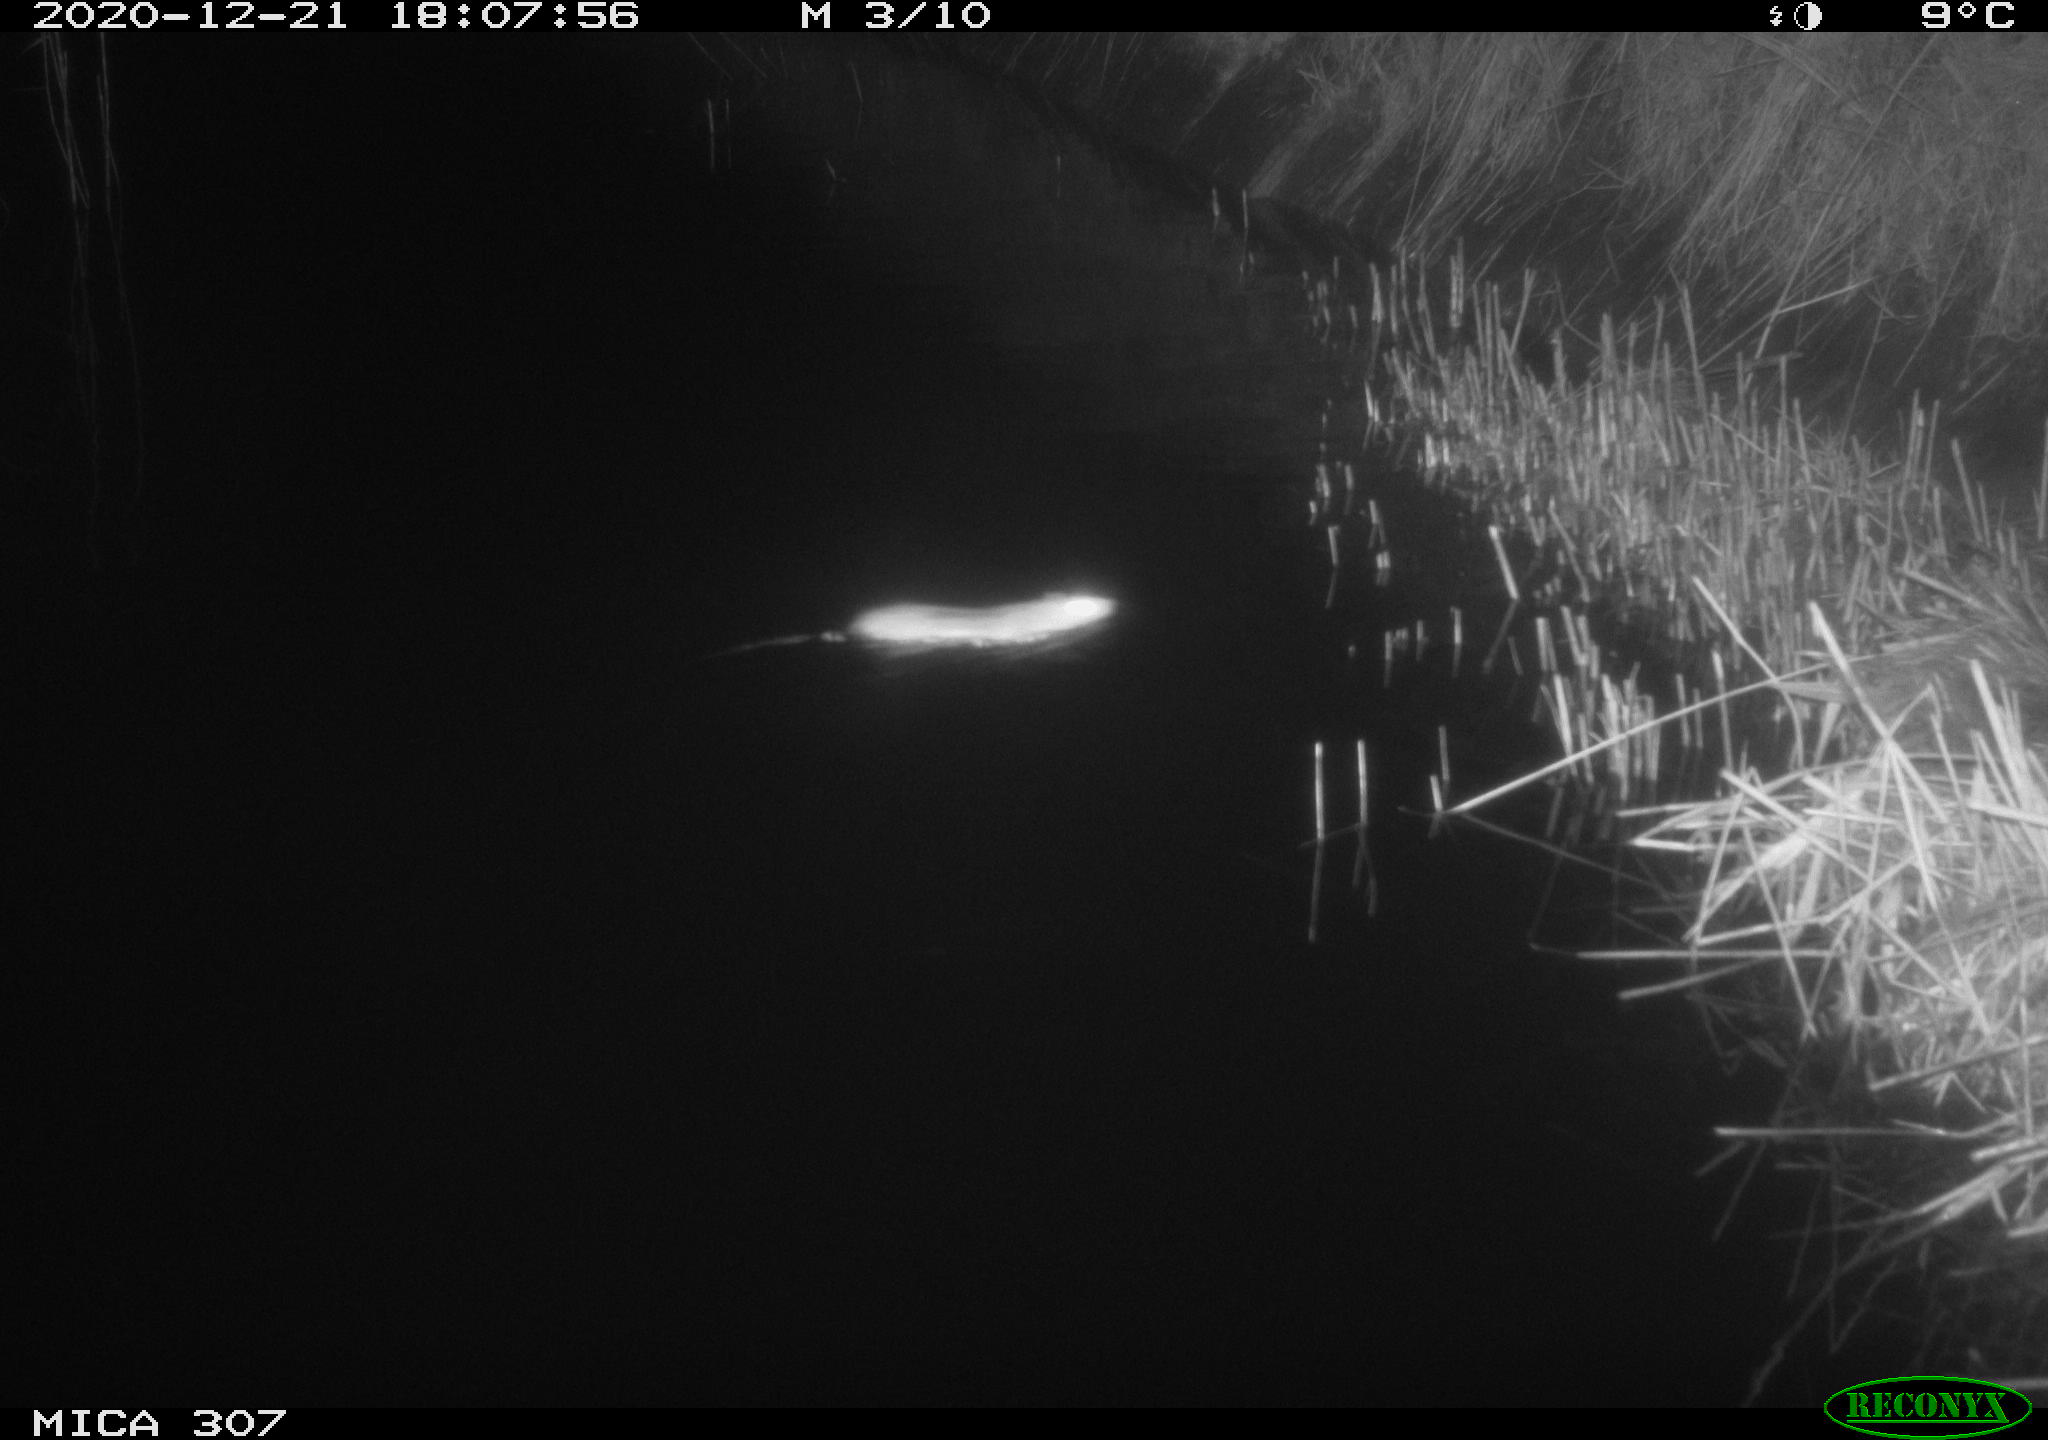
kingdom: Animalia
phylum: Chordata
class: Mammalia
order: Rodentia
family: Muridae
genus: Rattus
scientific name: Rattus norvegicus
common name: Brown rat
